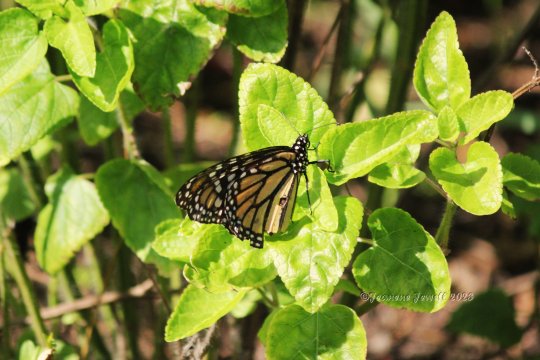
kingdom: Animalia
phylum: Arthropoda
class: Insecta
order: Lepidoptera
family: Nymphalidae
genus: Danaus
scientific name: Danaus plexippus
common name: Monarch
